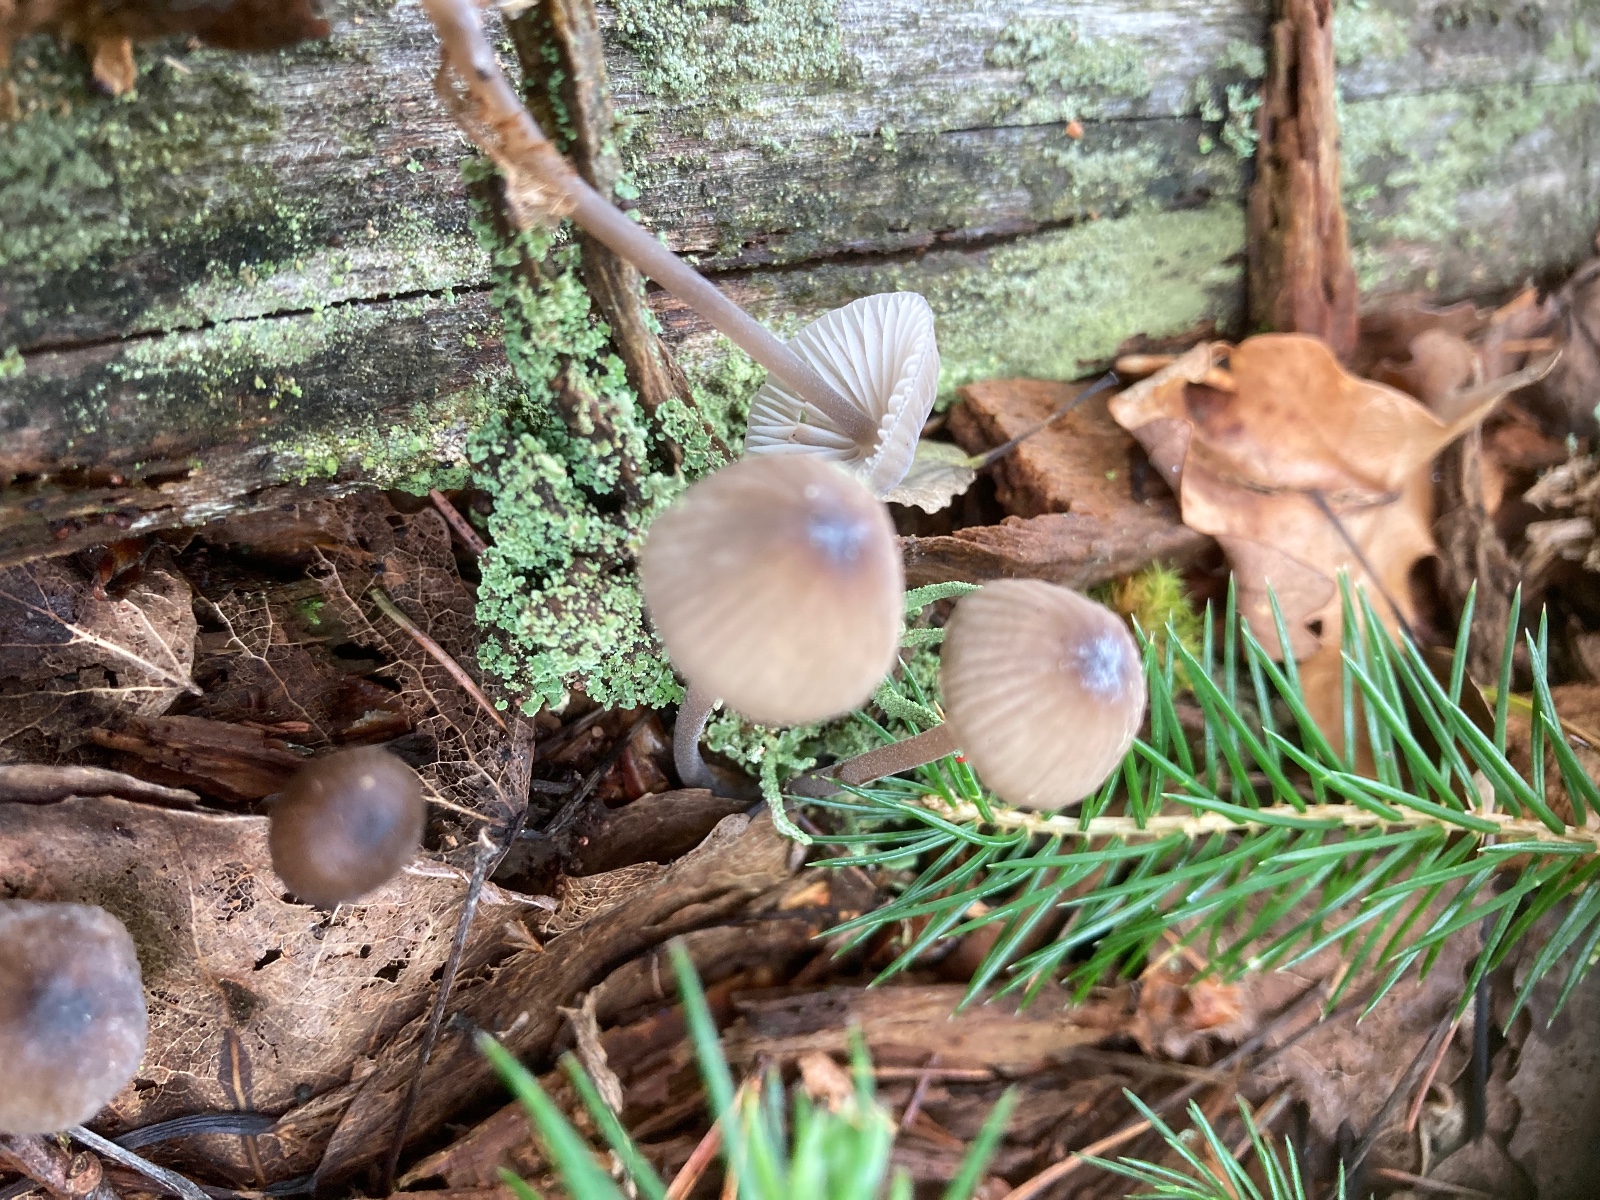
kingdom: Fungi
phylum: Basidiomycota
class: Agaricomycetes
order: Agaricales
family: Mycenaceae
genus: Mycena
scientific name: Mycena galopus
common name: hvidmælket huesvamp
